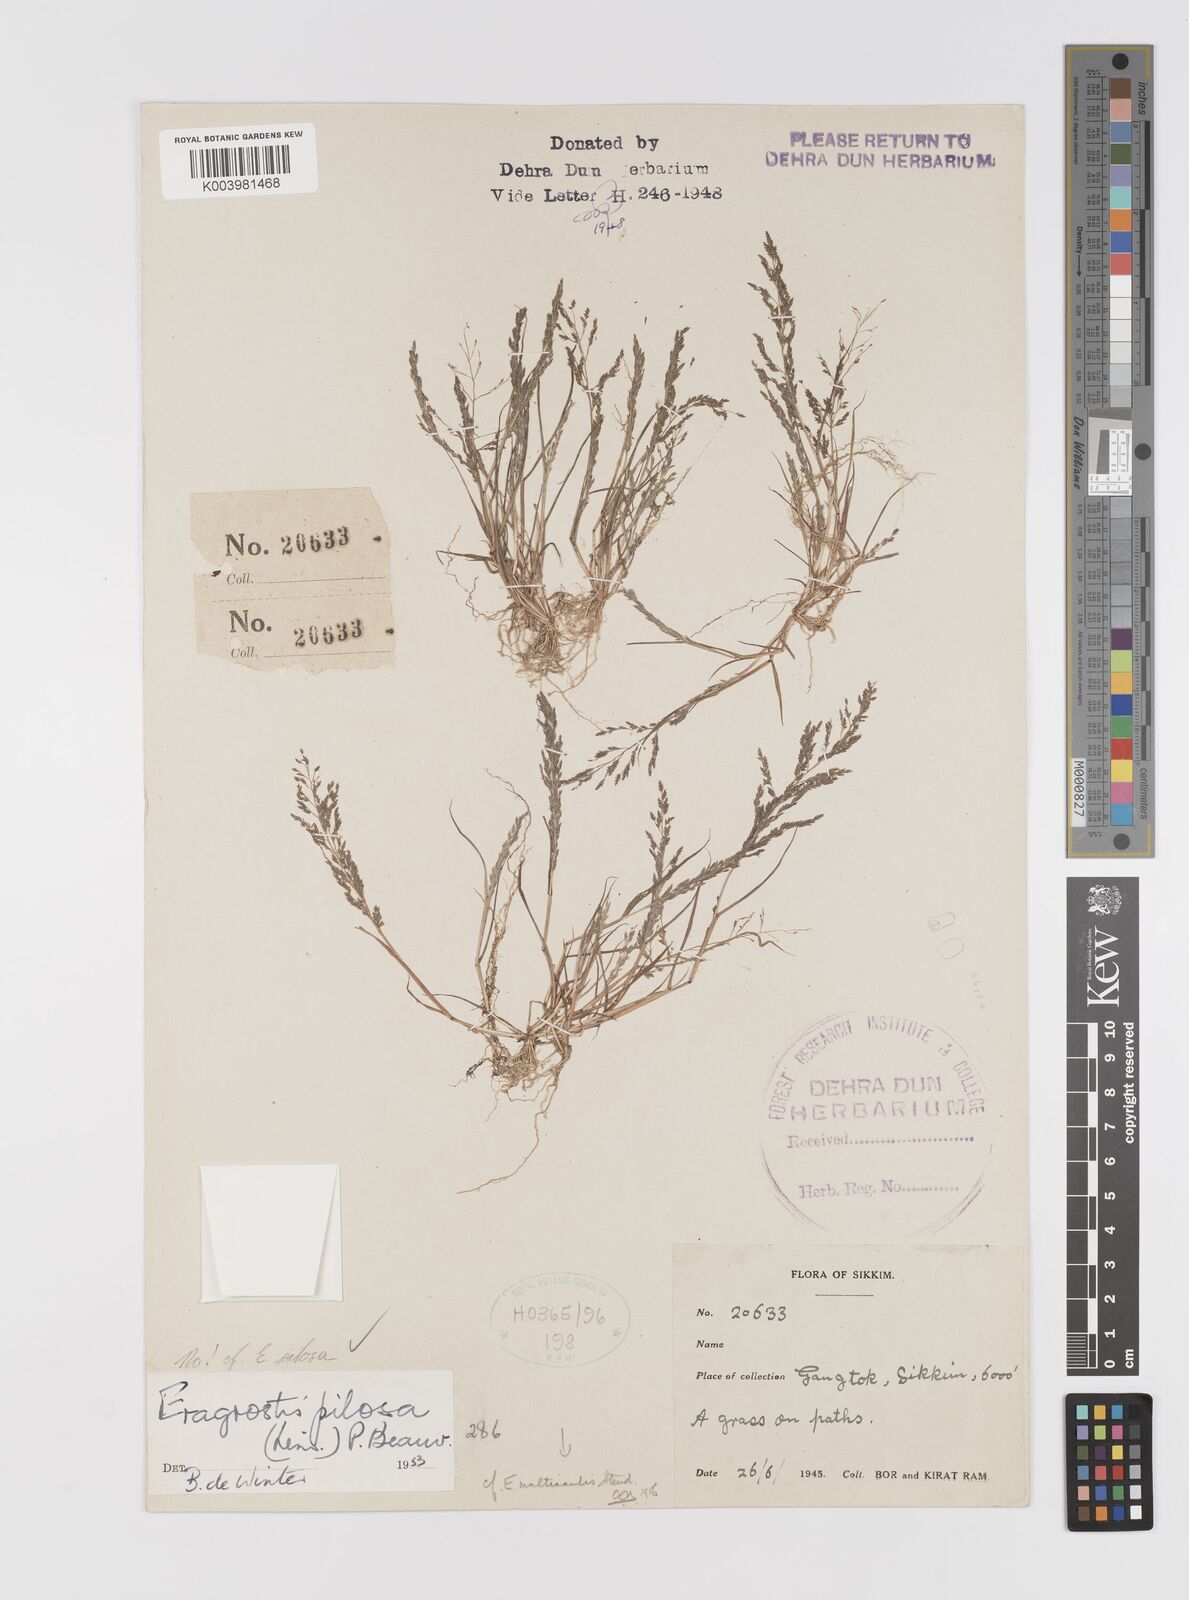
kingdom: Plantae
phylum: Tracheophyta
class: Liliopsida
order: Poales
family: Poaceae
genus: Eragrostis
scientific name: Eragrostis pilosa
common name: Indian lovegrass
